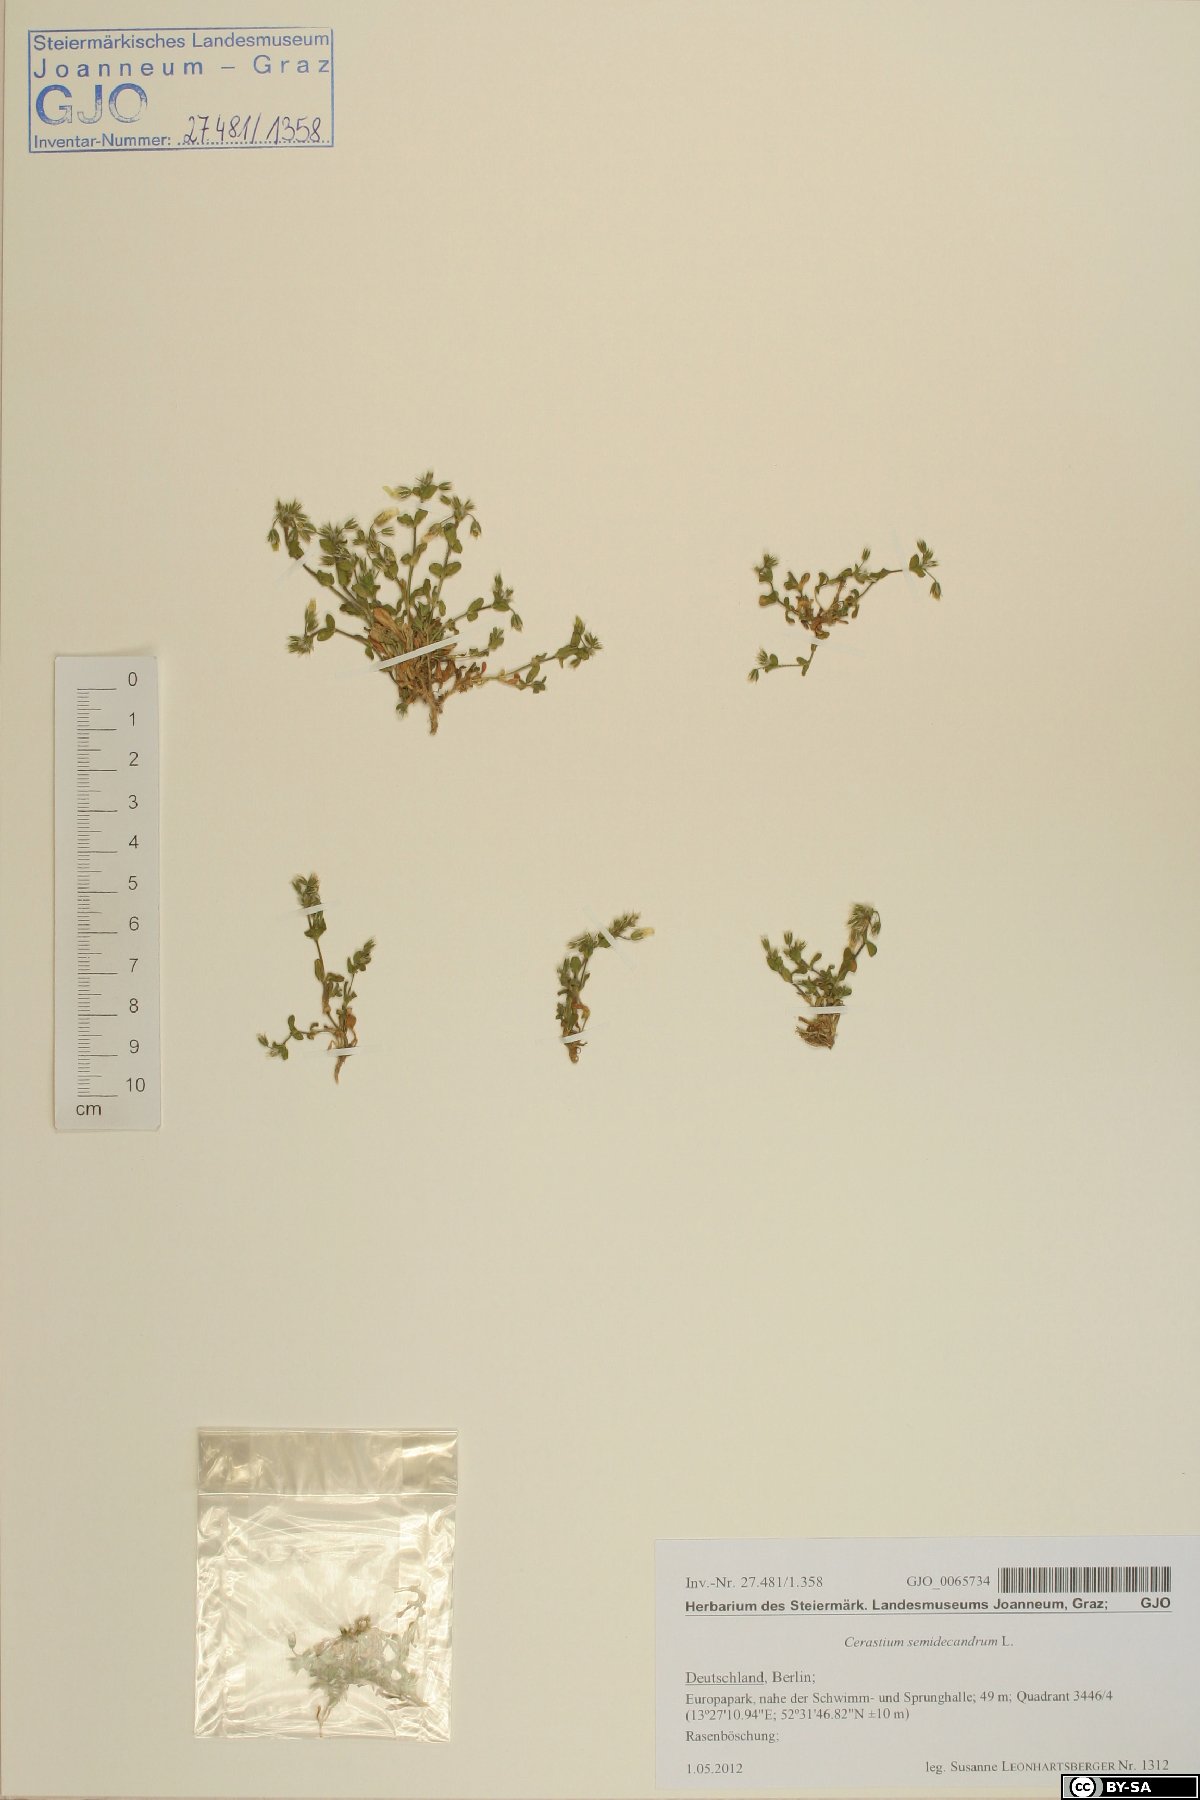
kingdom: Plantae
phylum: Tracheophyta
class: Magnoliopsida
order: Caryophyllales
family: Caryophyllaceae
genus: Cerastium
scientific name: Cerastium semidecandrum
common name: Little mouse-ear
